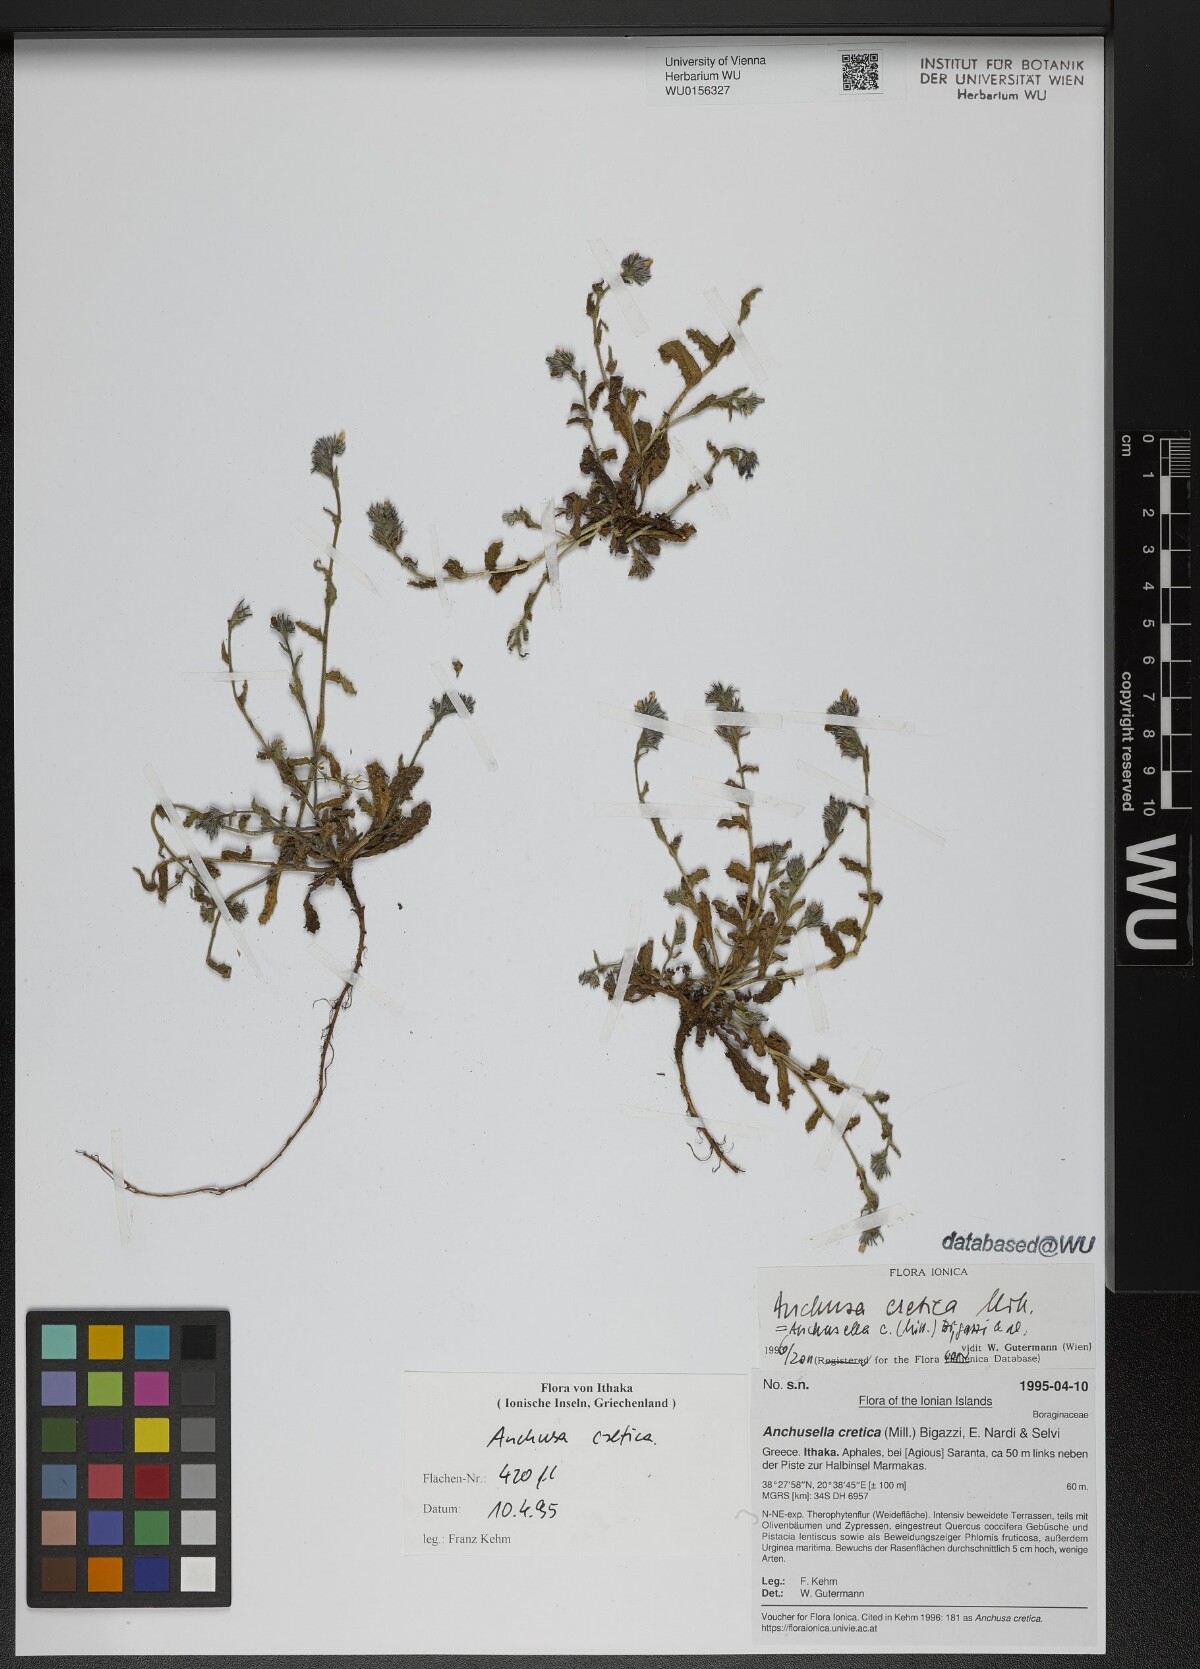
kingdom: Plantae
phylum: Tracheophyta
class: Magnoliopsida
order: Boraginales
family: Boraginaceae
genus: Anchusella
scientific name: Anchusella cretica
